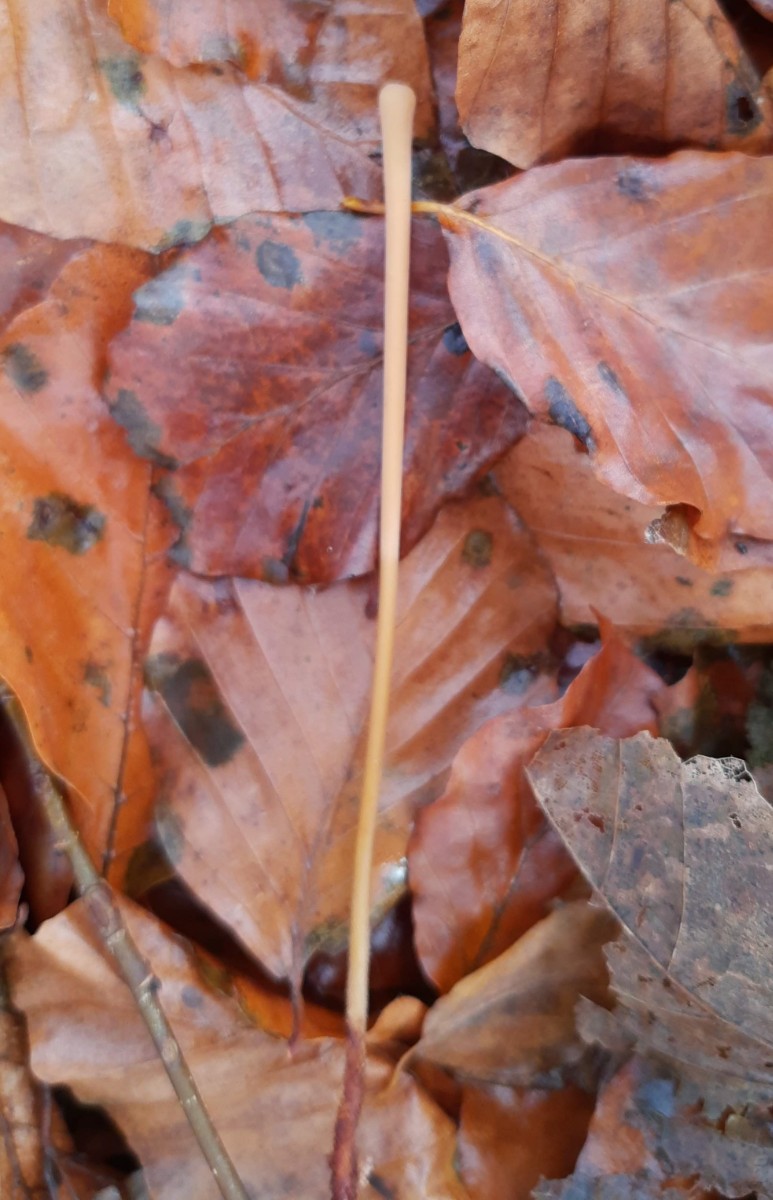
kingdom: Fungi
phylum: Basidiomycota
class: Agaricomycetes
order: Agaricales
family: Typhulaceae
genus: Typhula
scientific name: Typhula fistulosa
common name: pibet rørkølle
